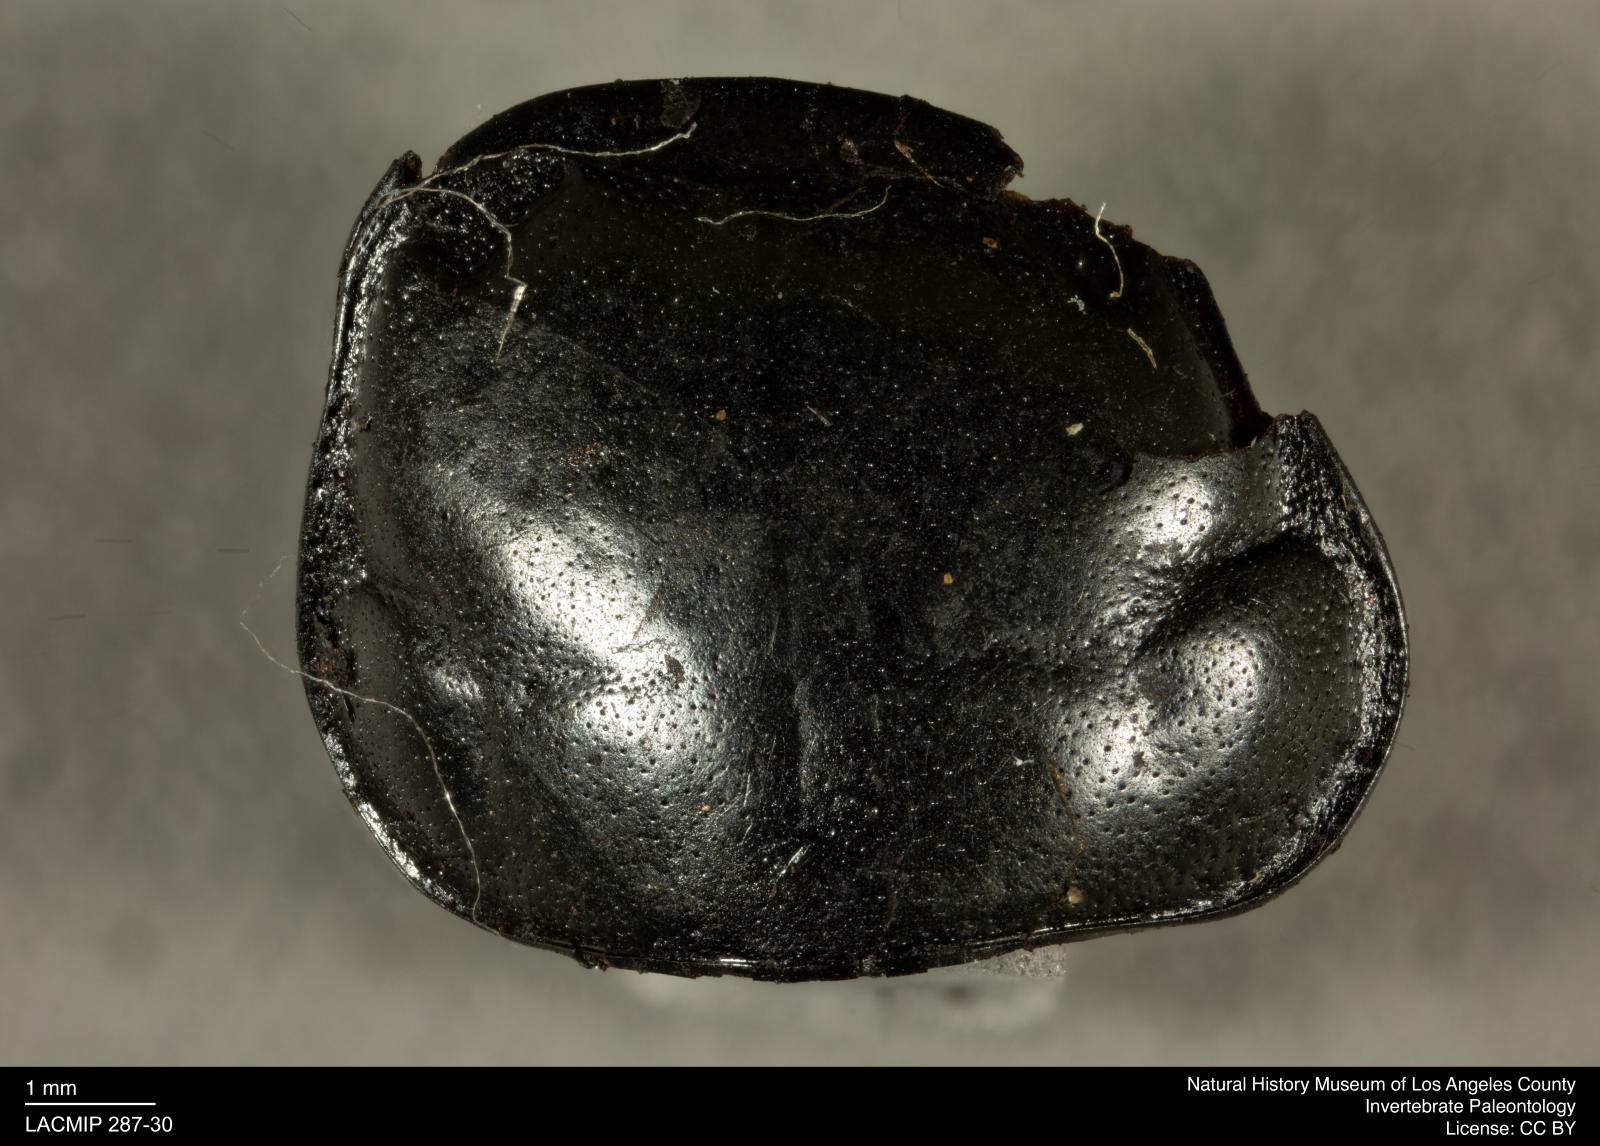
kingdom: Animalia
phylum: Arthropoda
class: Insecta
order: Coleoptera
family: Staphylinidae
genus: Nicrophorus
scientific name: Nicrophorus marginatus
